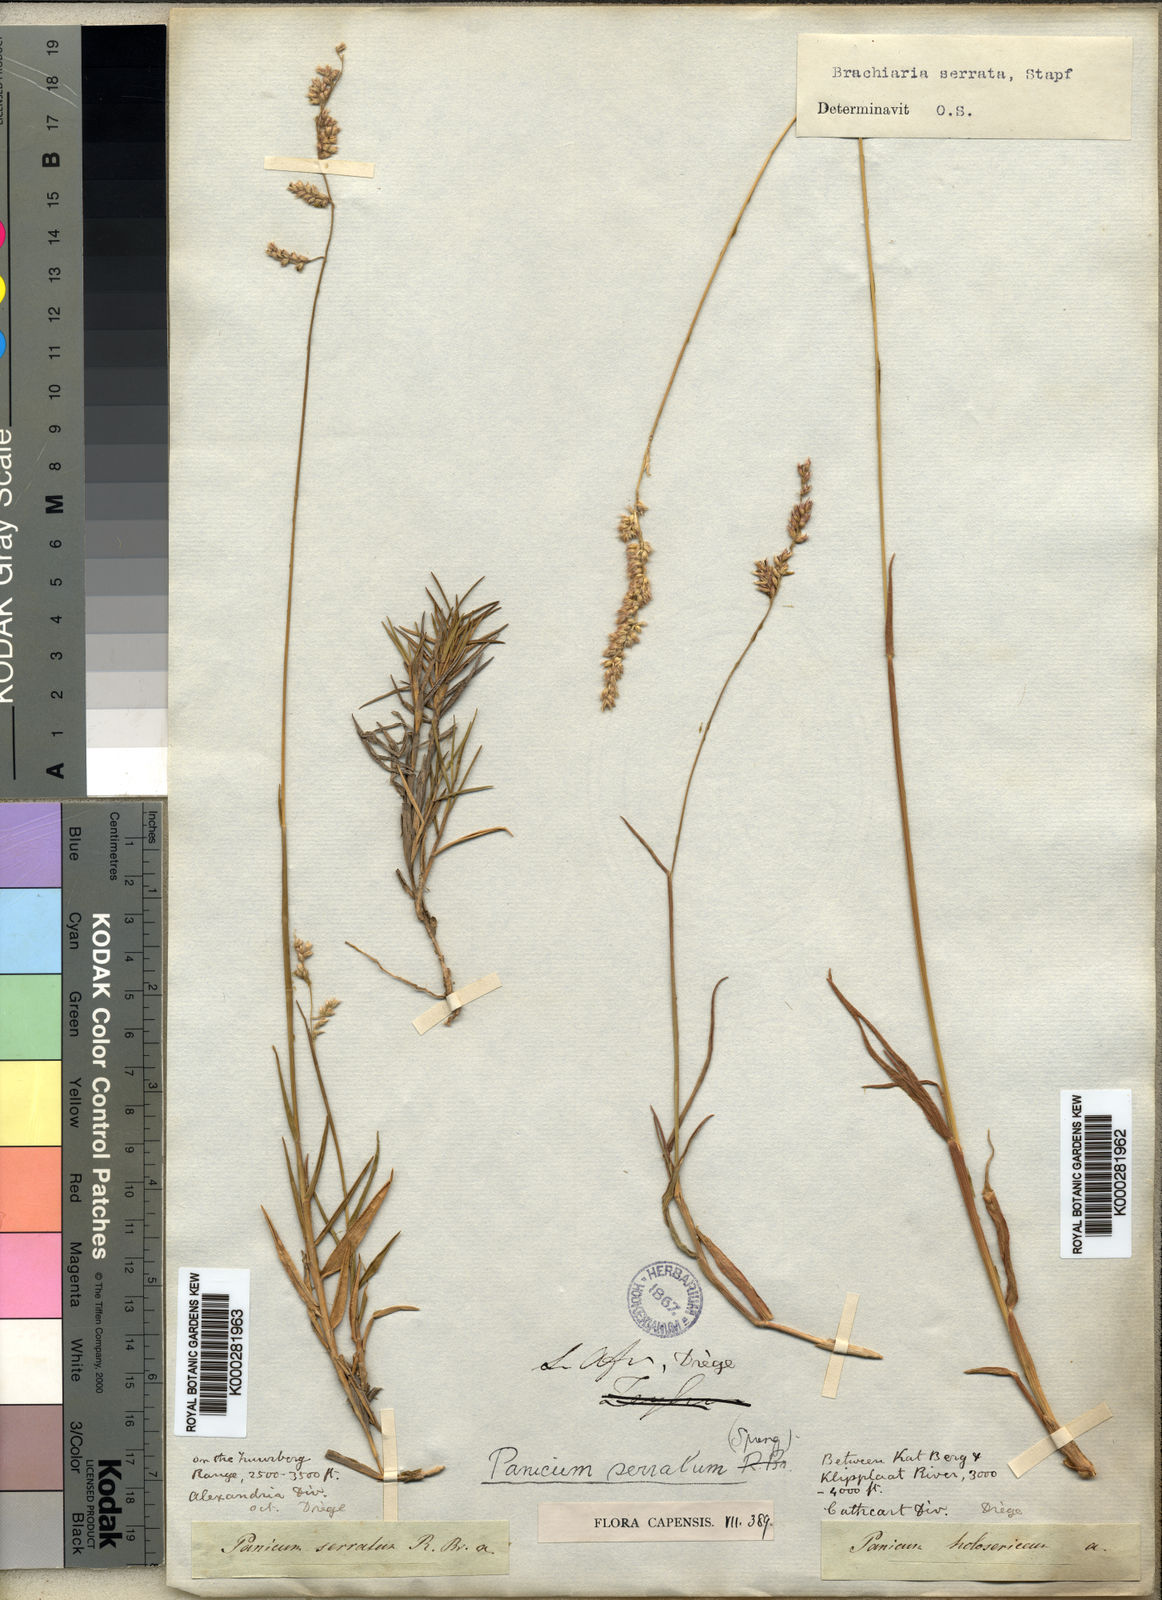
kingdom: Plantae
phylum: Tracheophyta
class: Liliopsida
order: Poales
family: Poaceae
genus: Urochloa
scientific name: Urochloa serrata
